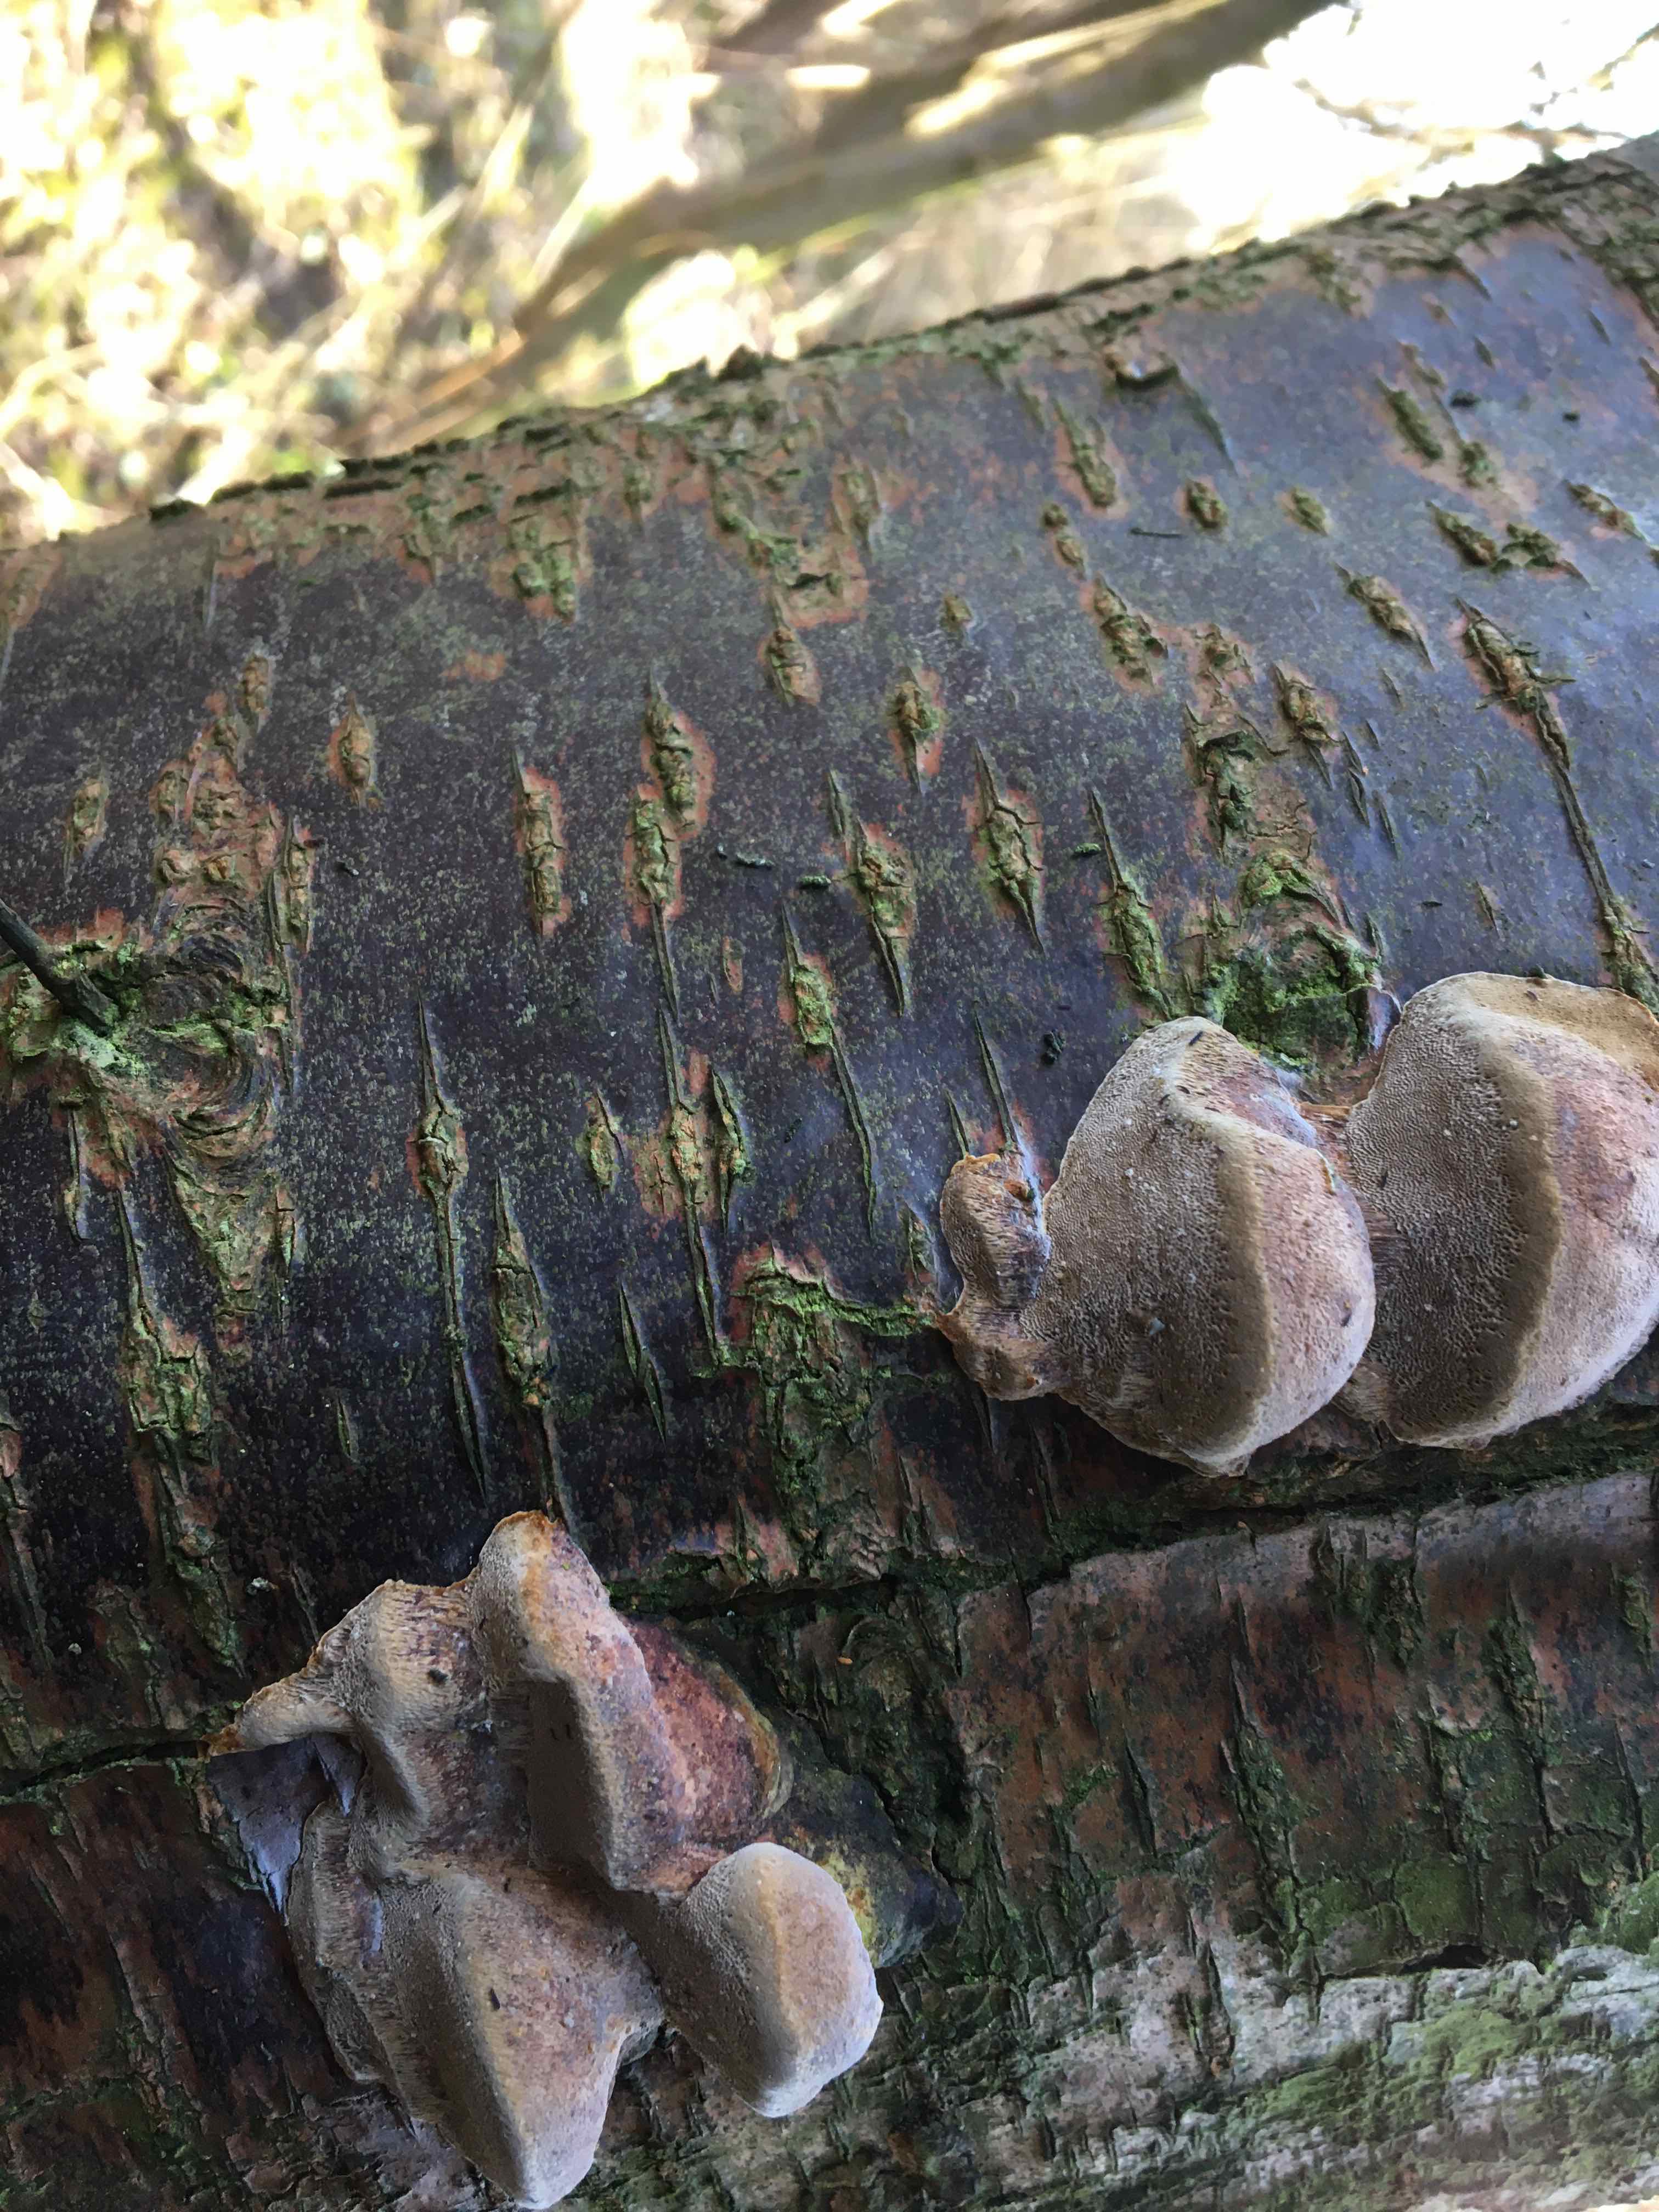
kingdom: Fungi
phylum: Basidiomycota
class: Agaricomycetes
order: Hymenochaetales
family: Hymenochaetaceae
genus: Phellinus
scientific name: Phellinus pomaceus
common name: blomme-ildporesvamp
